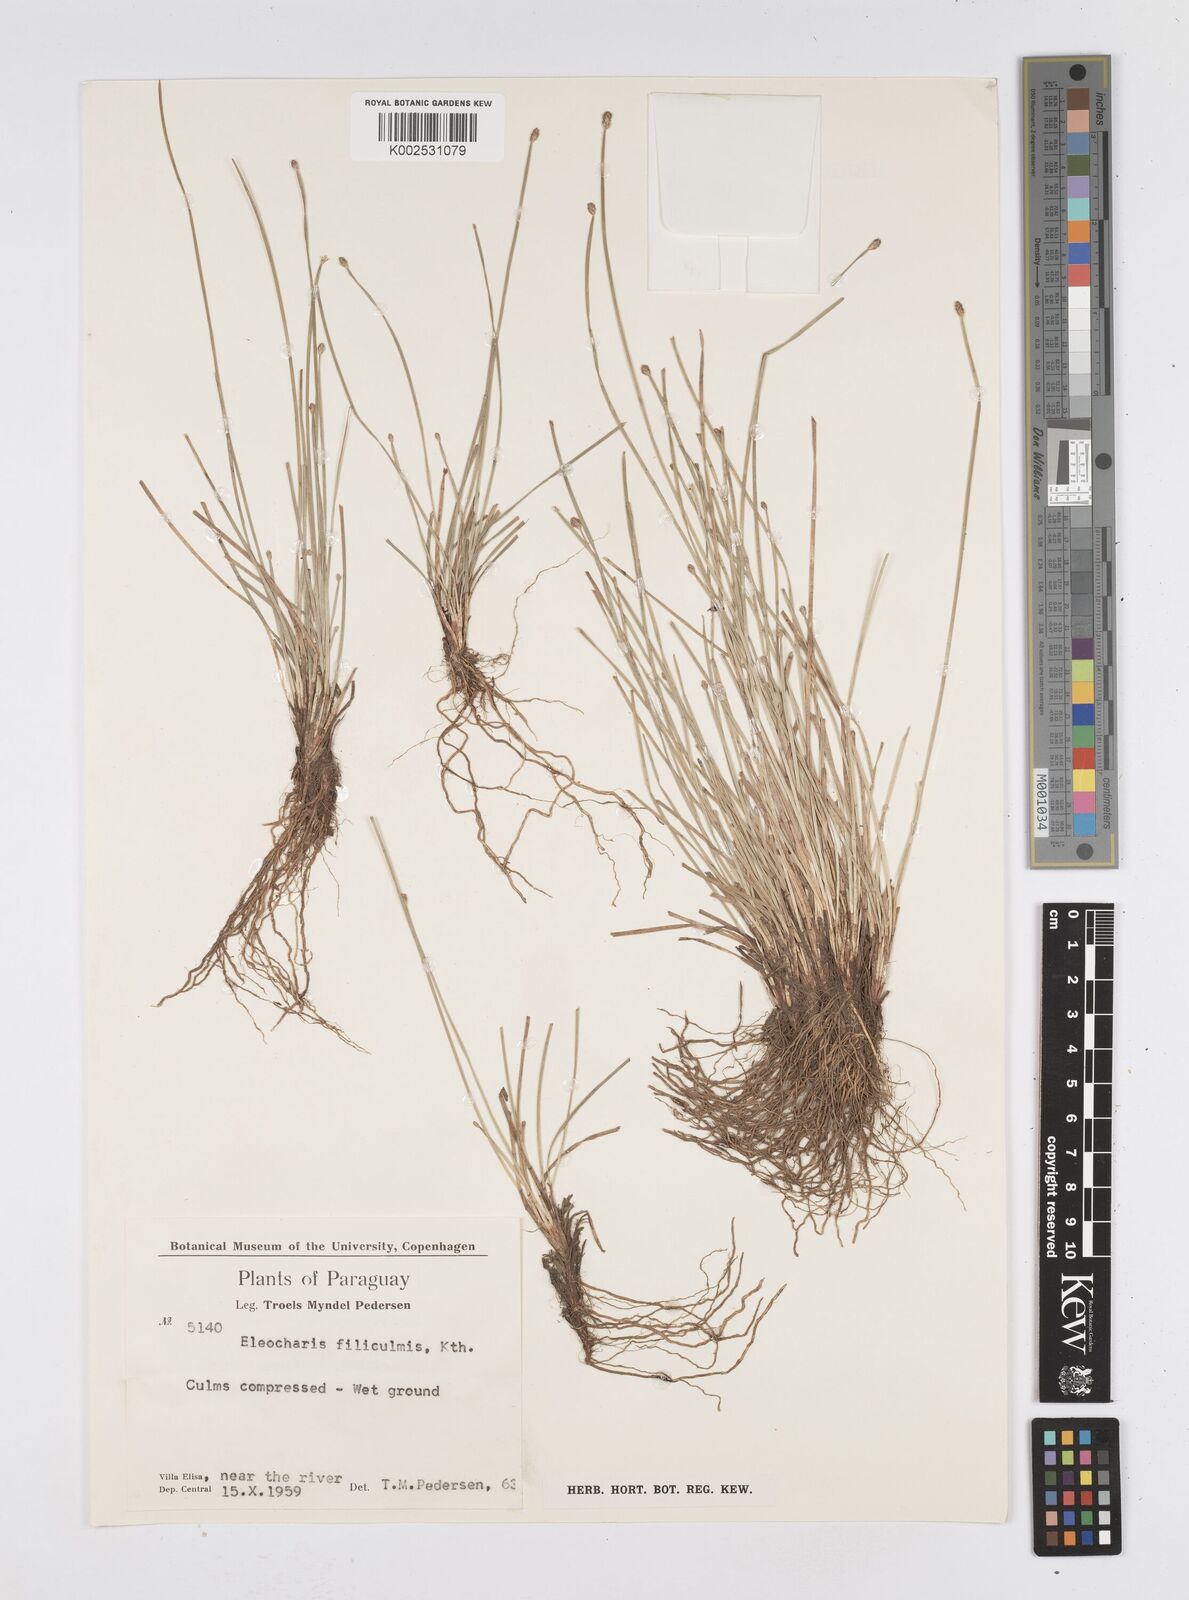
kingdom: Plantae
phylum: Tracheophyta
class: Liliopsida
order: Poales
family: Cyperaceae
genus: Eleocharis
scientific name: Eleocharis filiculmis
